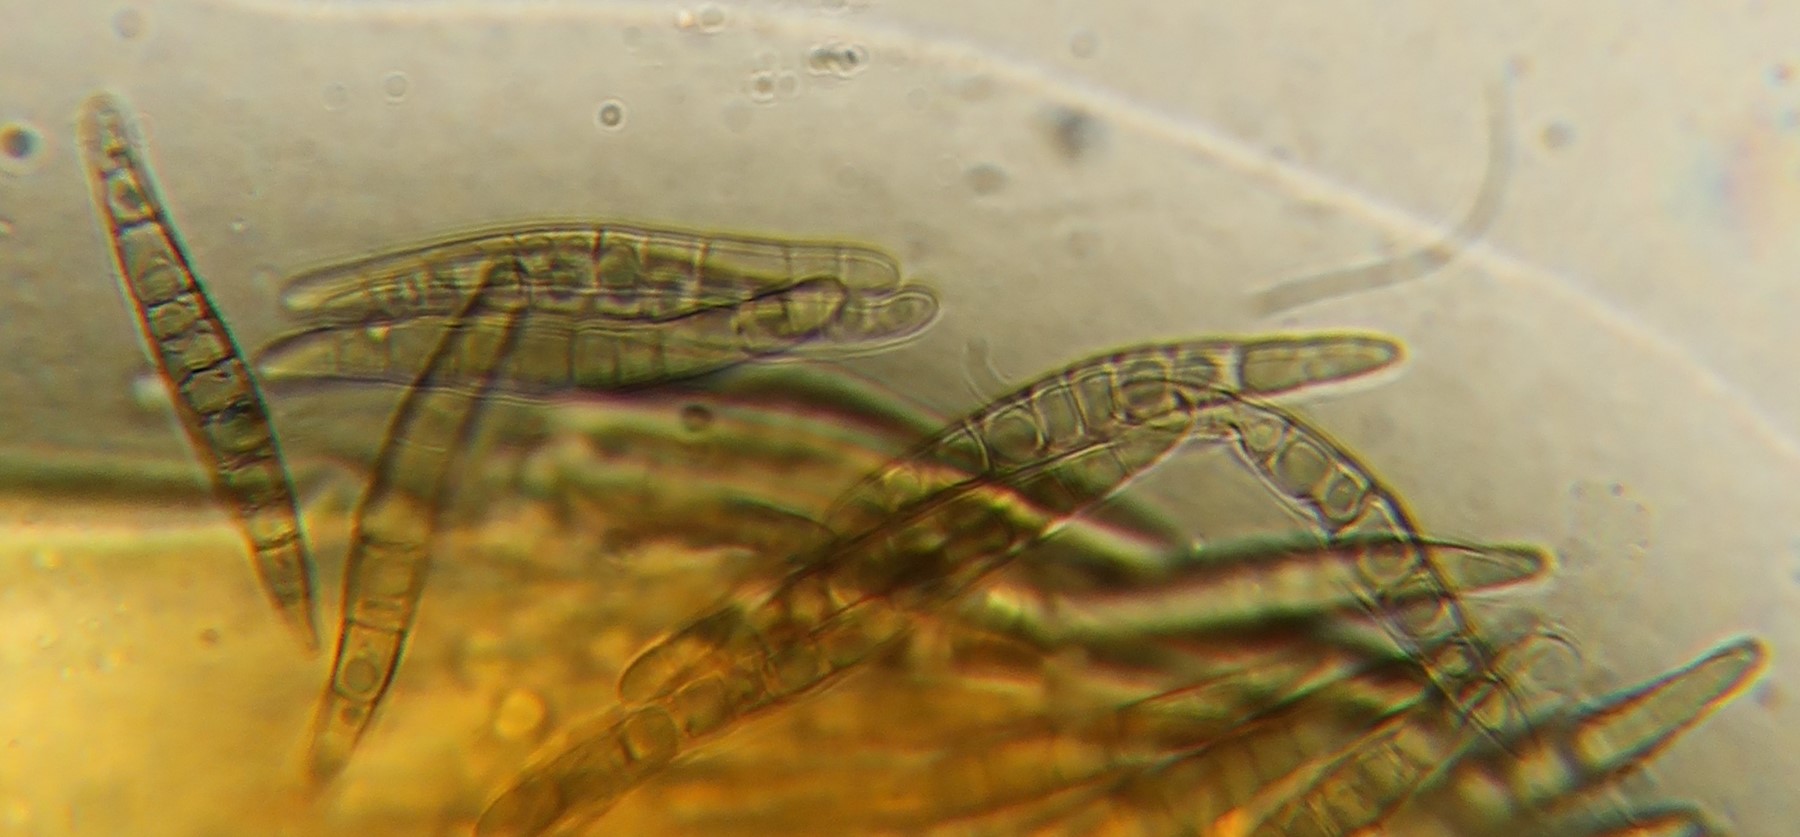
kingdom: Fungi
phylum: Ascomycota
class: Dothideomycetes
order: Pleosporales
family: Leptosphaeriaceae
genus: Leptosphaeria
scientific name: Leptosphaeria acuta
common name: spids kulkegle
